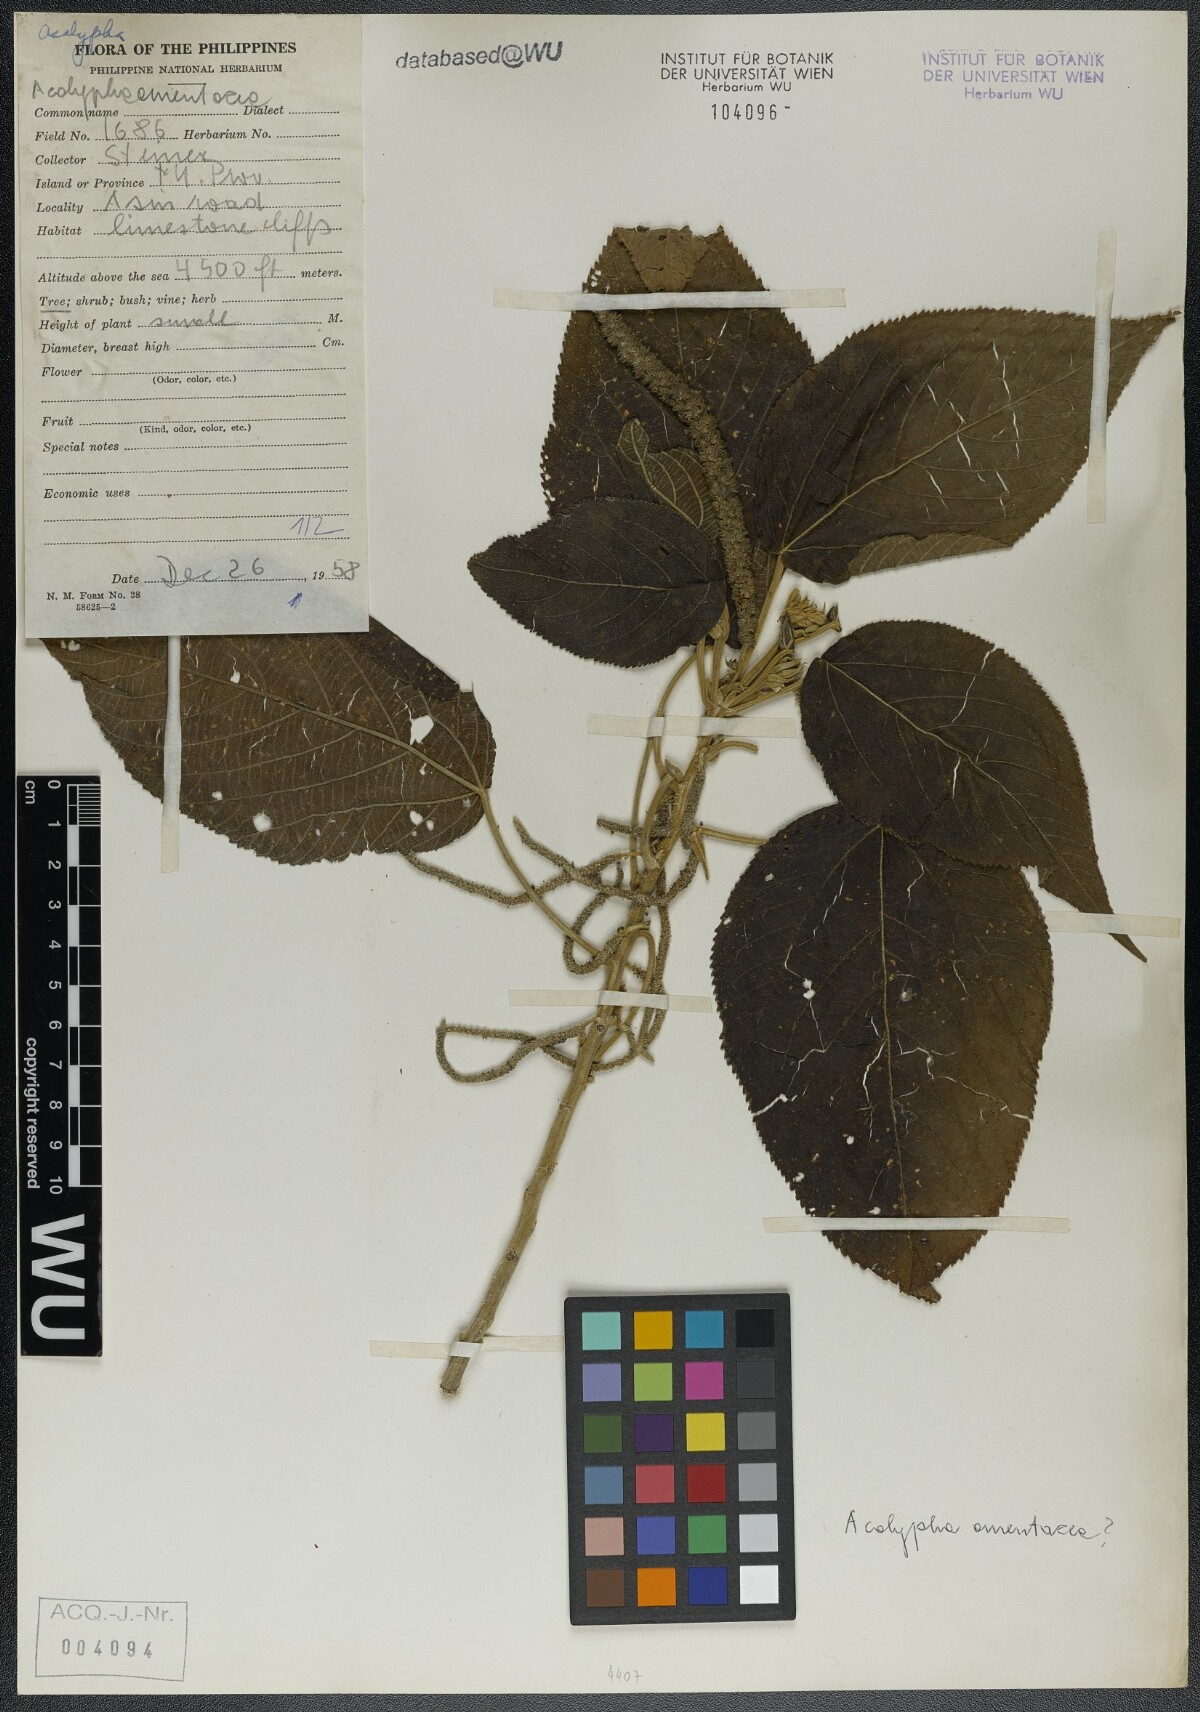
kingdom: Plantae
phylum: Tracheophyta
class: Magnoliopsida
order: Malpighiales
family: Euphorbiaceae
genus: Acalypha
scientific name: Acalypha amentacea
